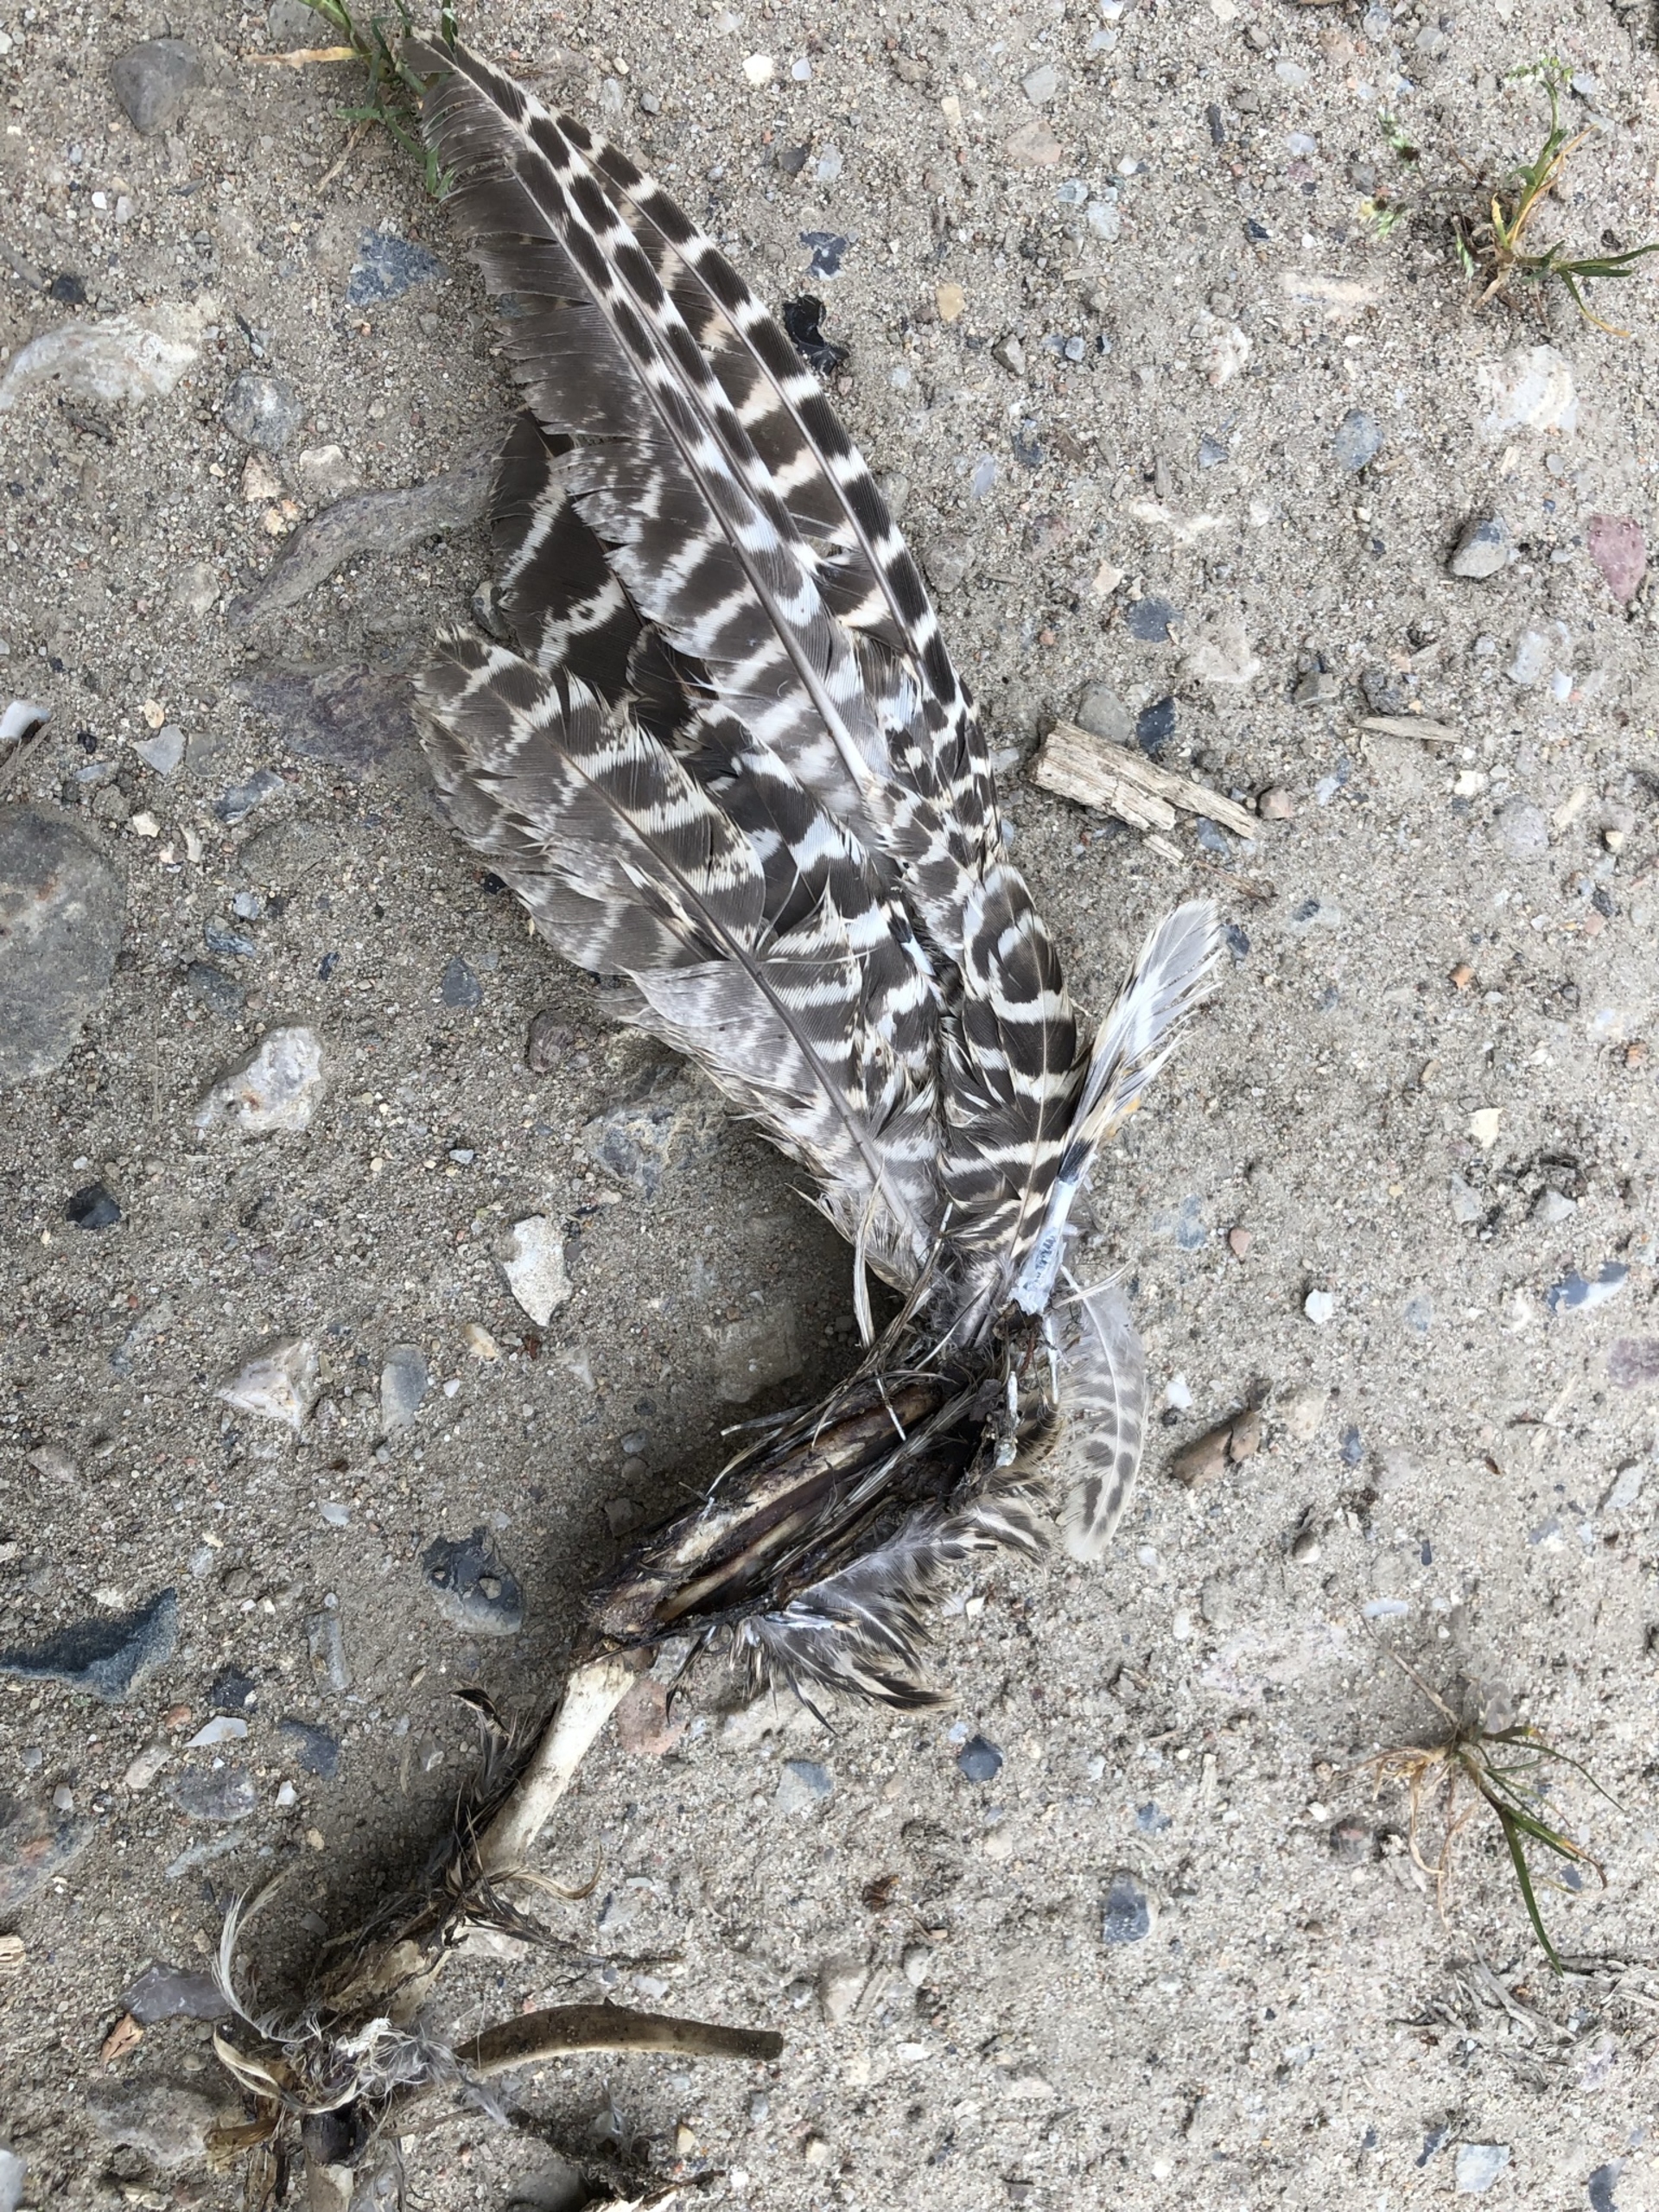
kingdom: Animalia
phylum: Chordata
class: Aves
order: Galliformes
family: Phasianidae
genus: Phasianus
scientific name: Phasianus colchicus
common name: Fasan
